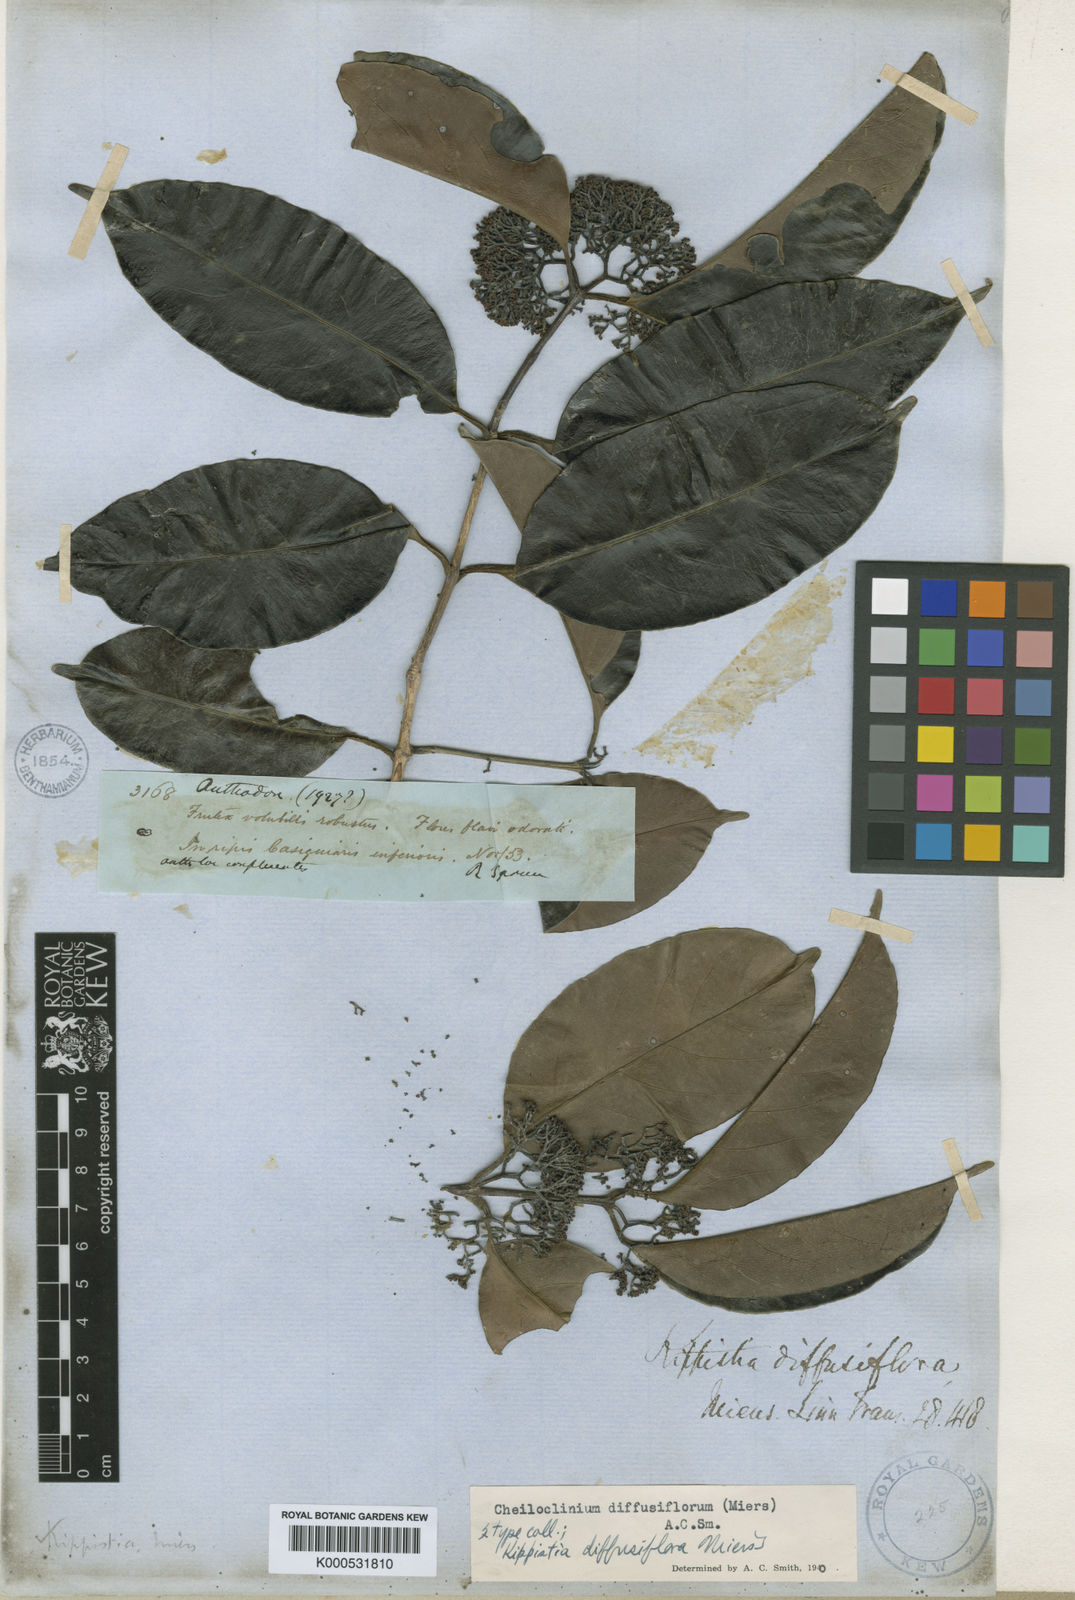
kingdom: Plantae
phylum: Tracheophyta
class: Magnoliopsida
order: Celastrales
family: Celastraceae
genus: Cheiloclinium
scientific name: Cheiloclinium serratum
